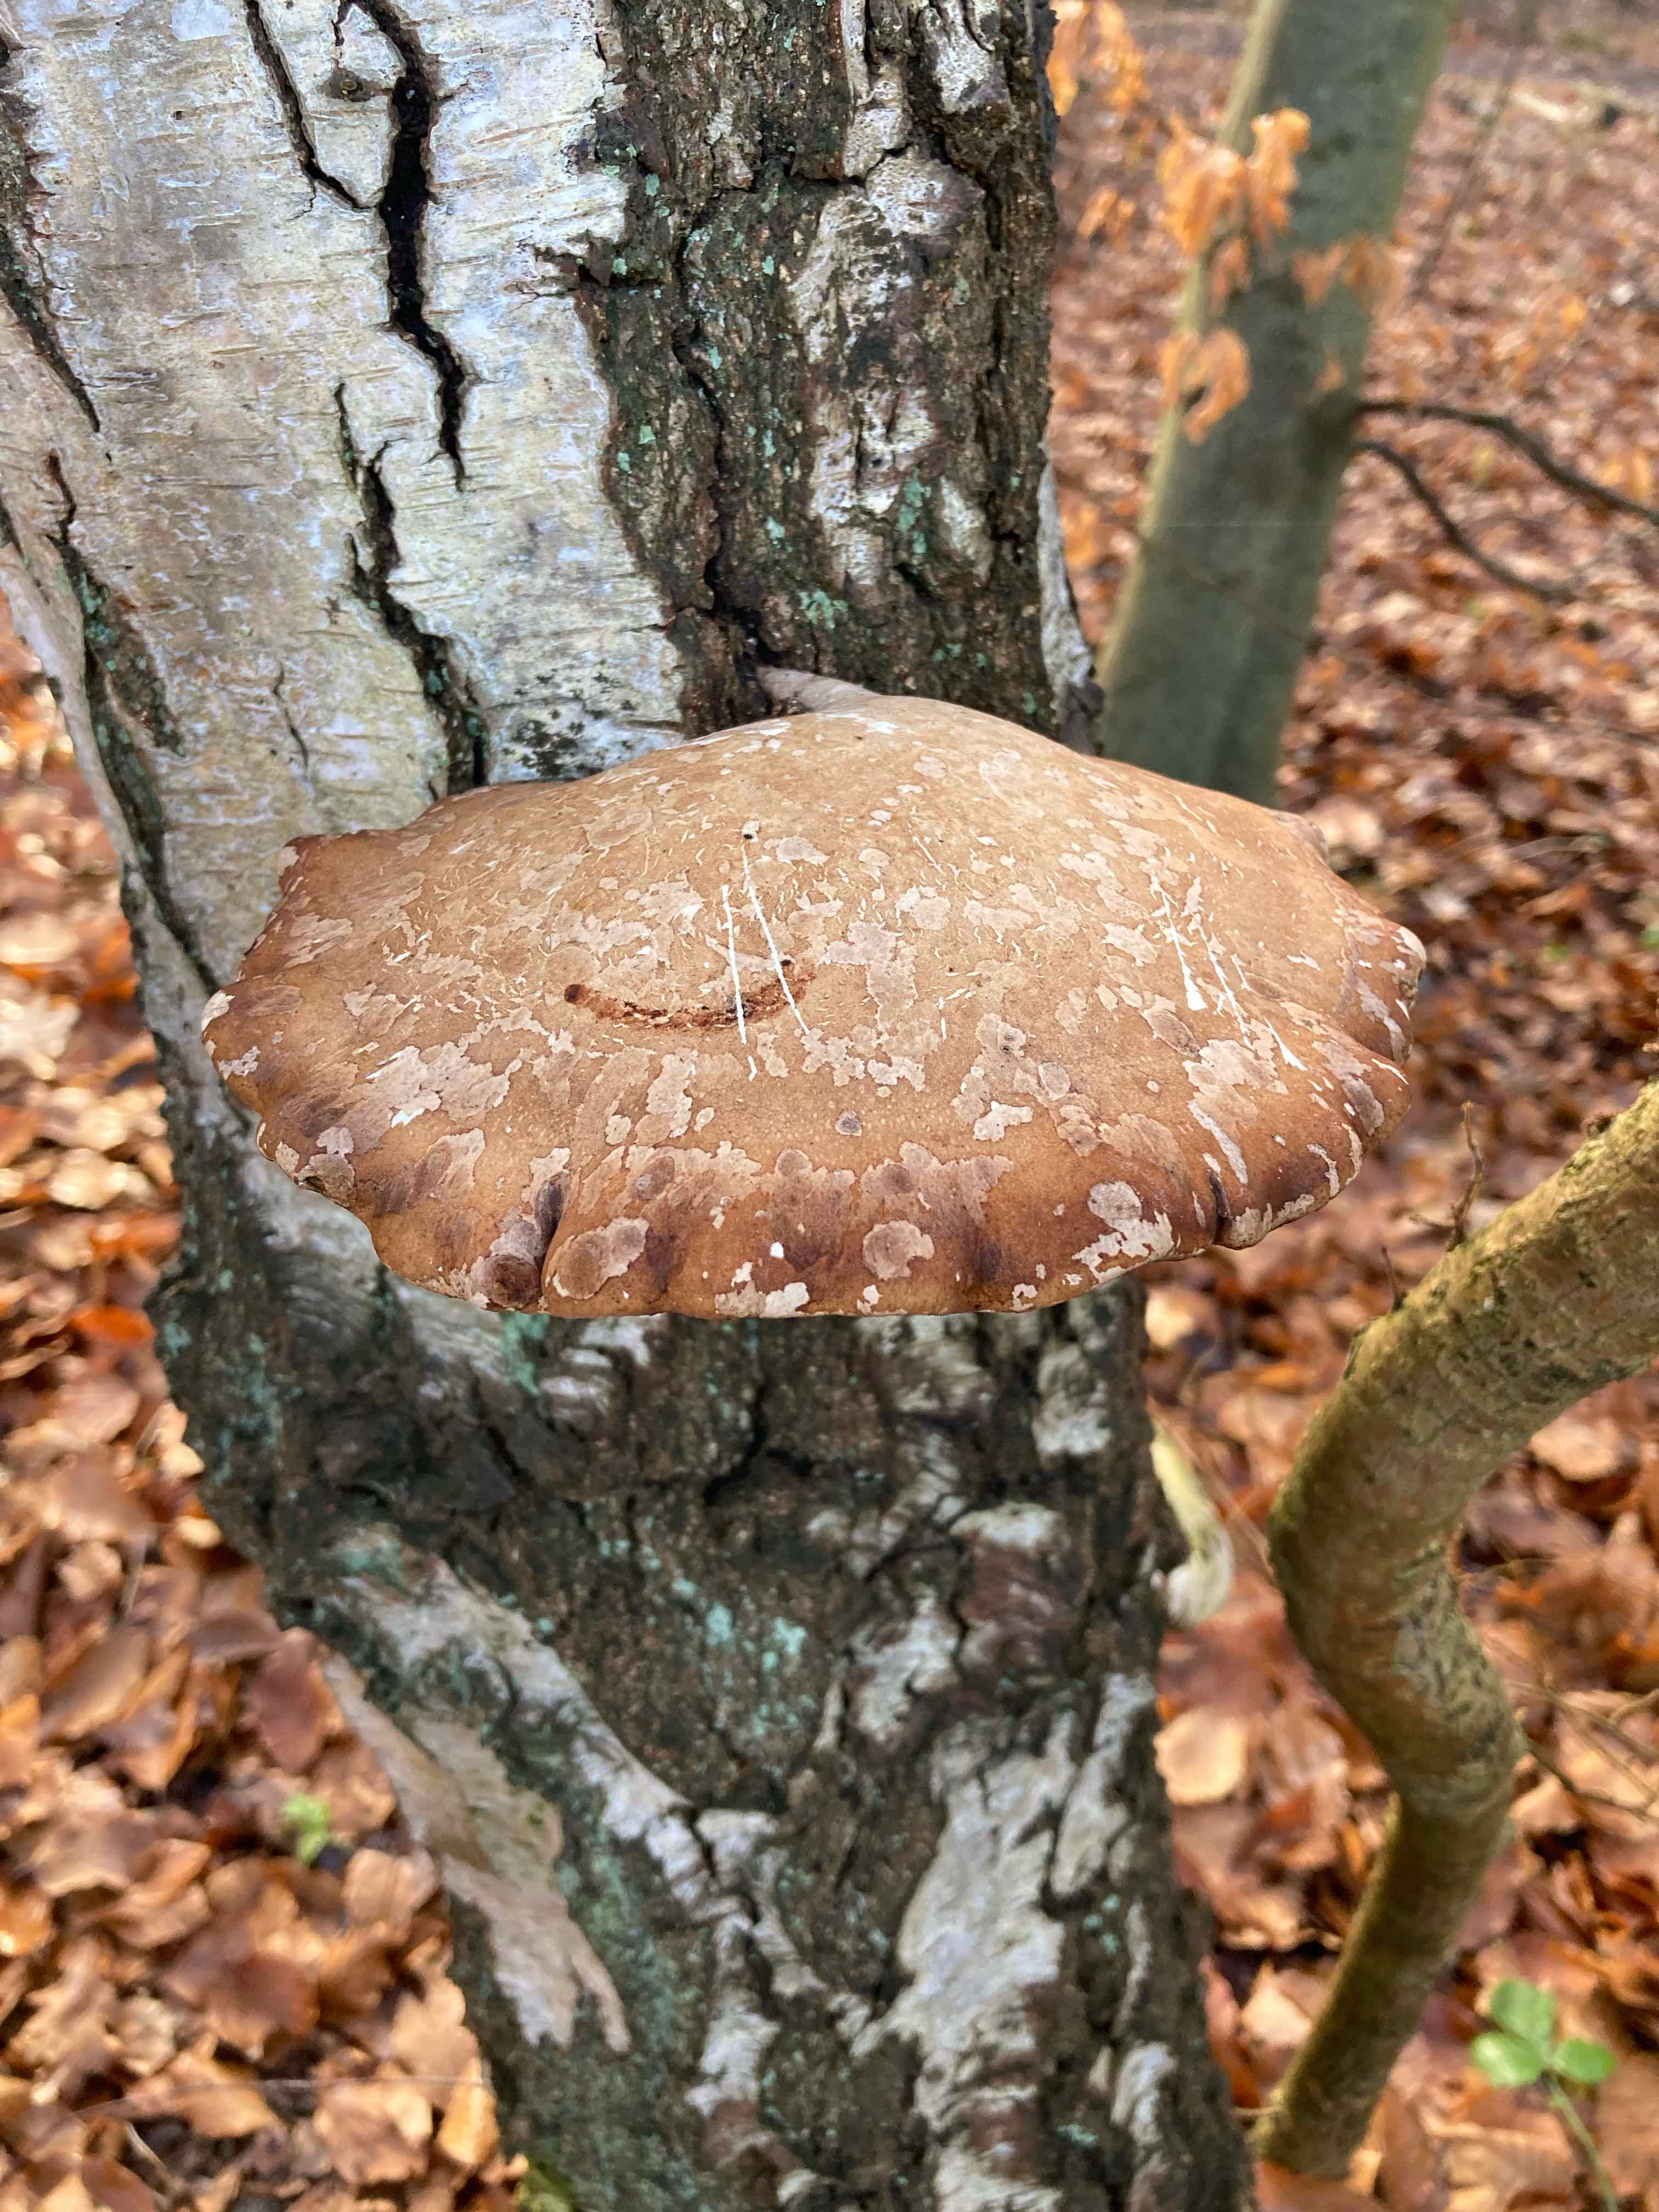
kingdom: Fungi
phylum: Basidiomycota
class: Agaricomycetes
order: Polyporales
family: Fomitopsidaceae
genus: Fomitopsis
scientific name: Fomitopsis betulina
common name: birkeporesvamp
